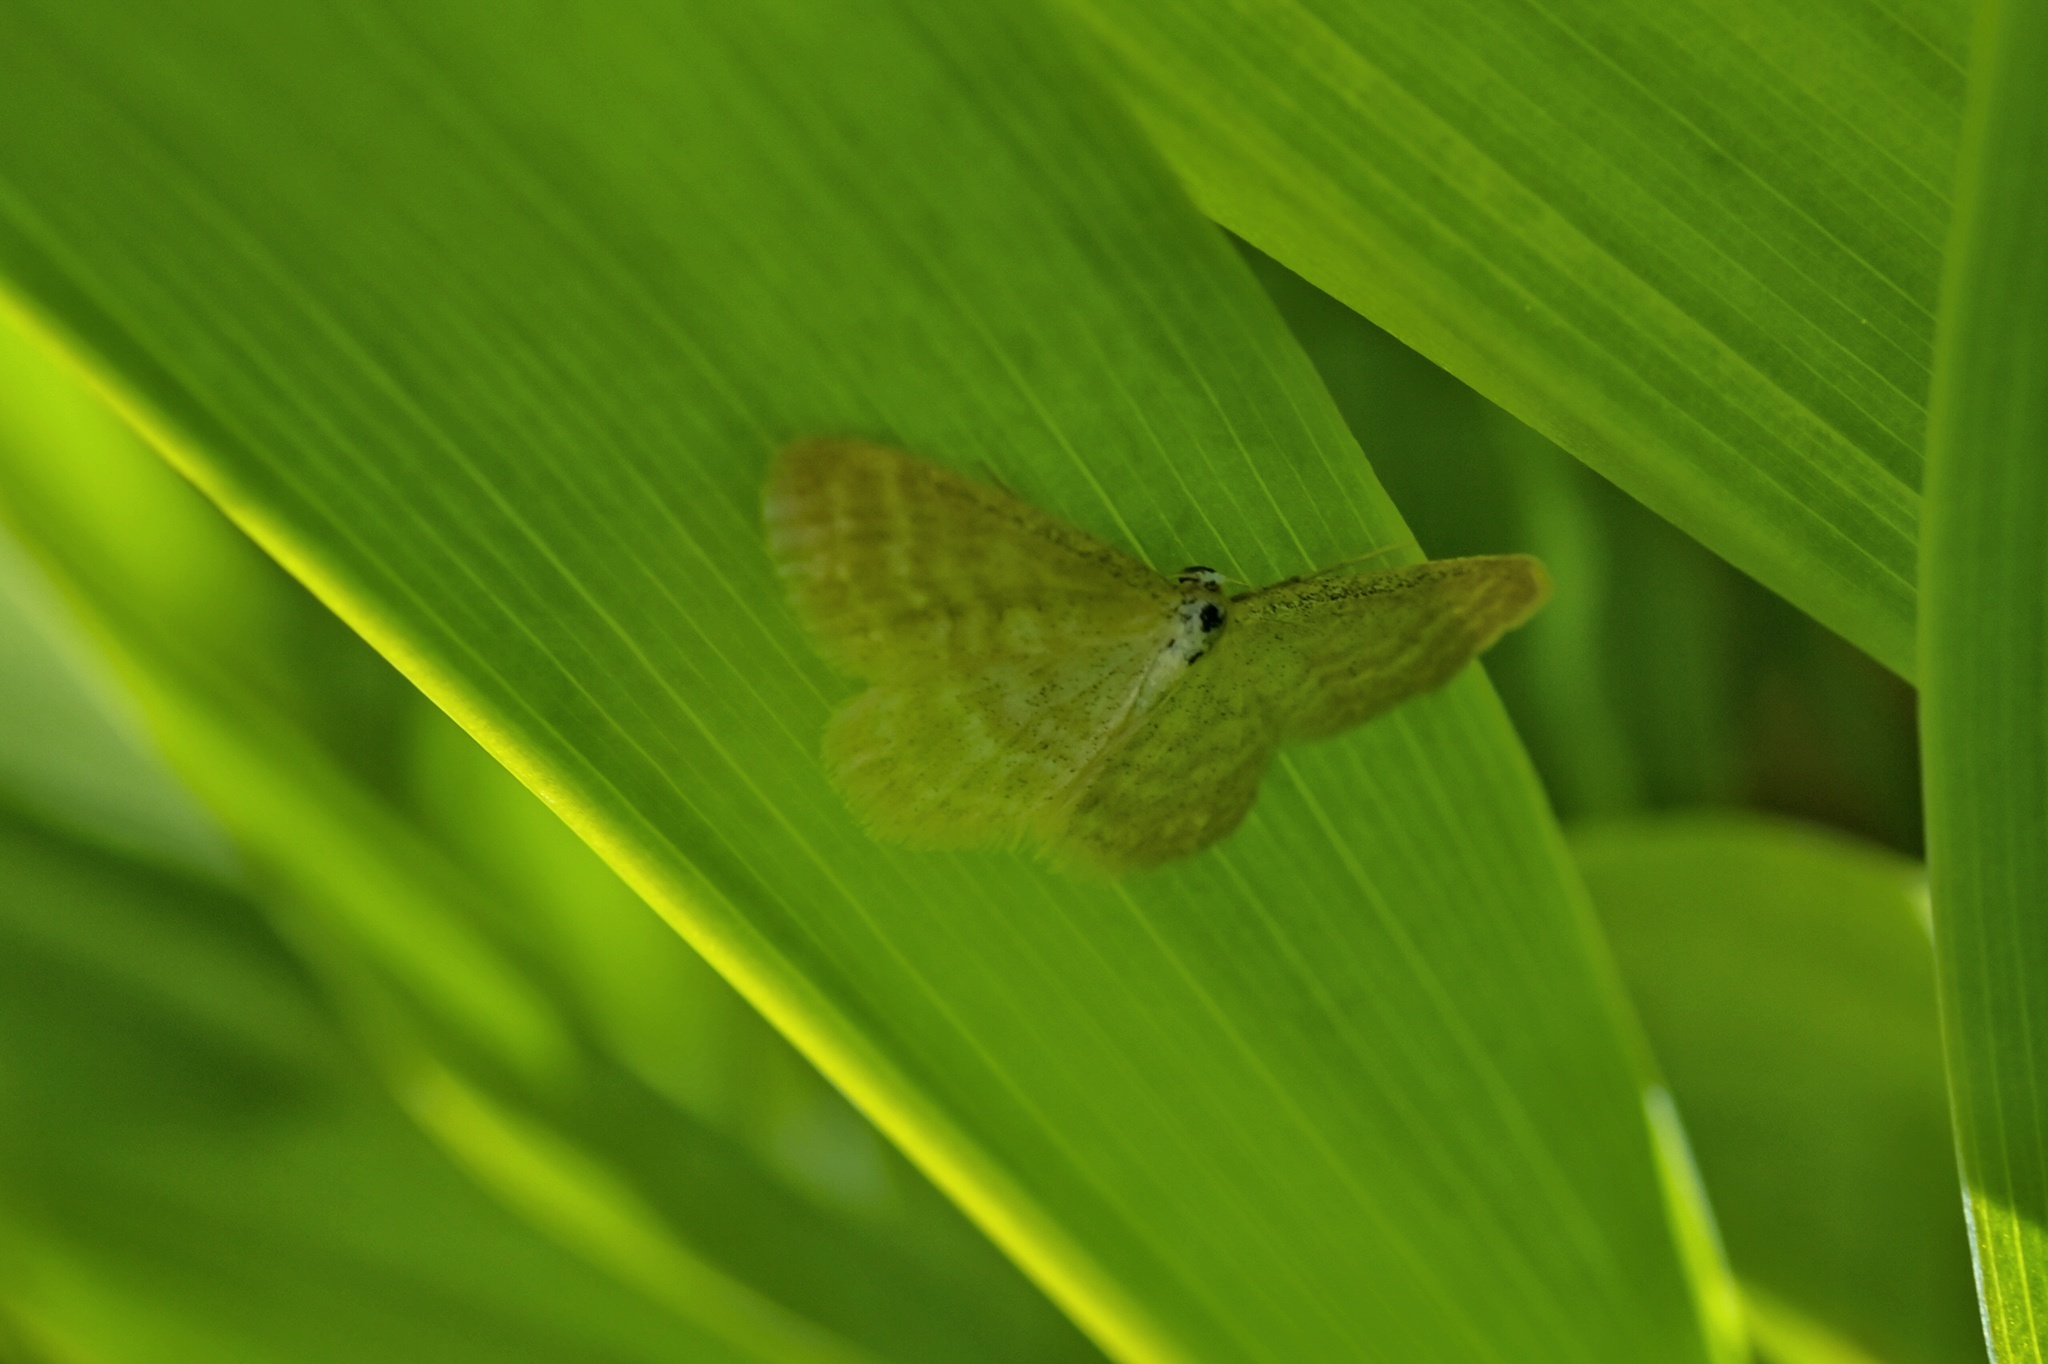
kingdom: Animalia
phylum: Arthropoda
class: Insecta
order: Lepidoptera
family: Geometridae
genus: Idaea
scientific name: Idaea pallidata
